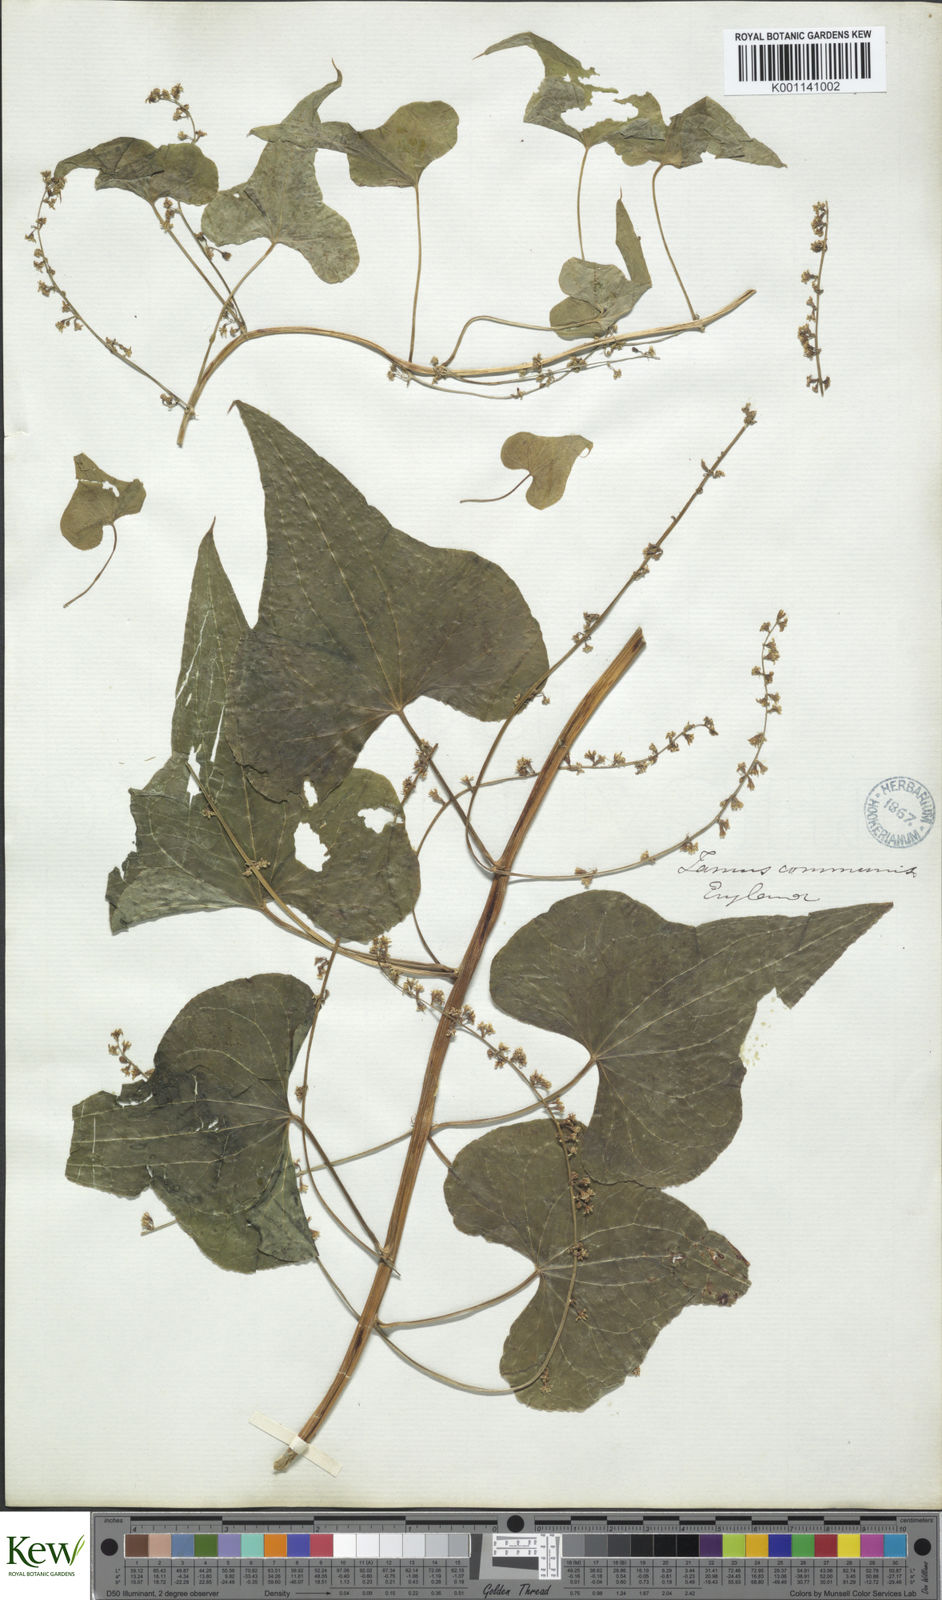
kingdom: Plantae
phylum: Tracheophyta
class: Liliopsida
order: Dioscoreales
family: Dioscoreaceae
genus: Dioscorea
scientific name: Dioscorea communis
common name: Black-bindweed
